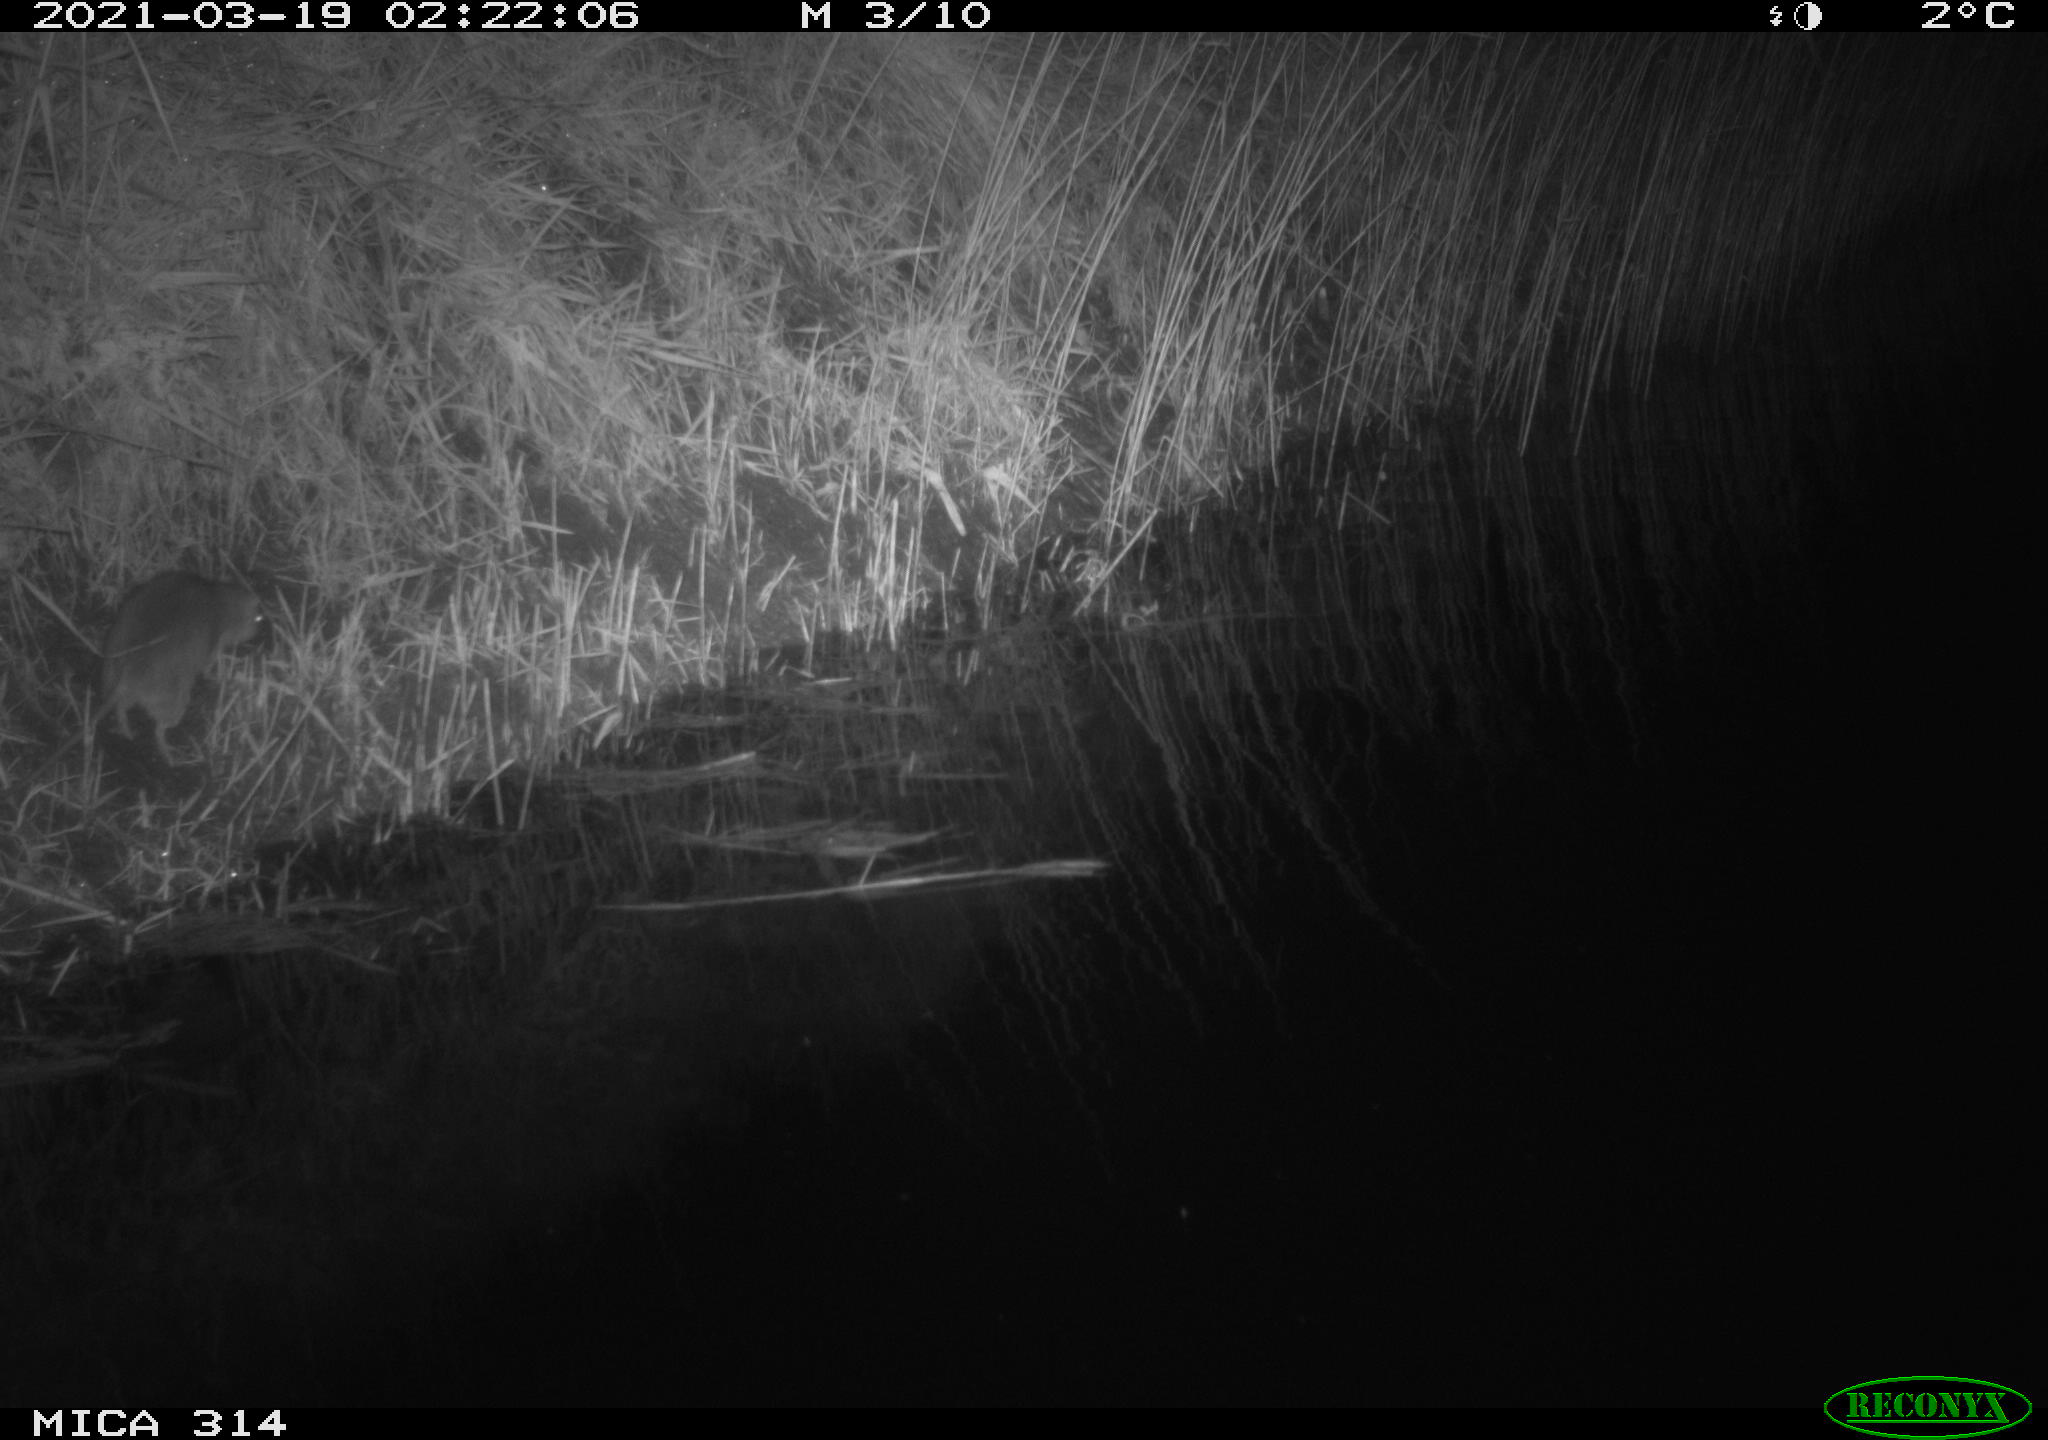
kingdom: Animalia
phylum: Chordata
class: Mammalia
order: Rodentia
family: Muridae
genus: Rattus
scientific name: Rattus norvegicus
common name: Brown rat
